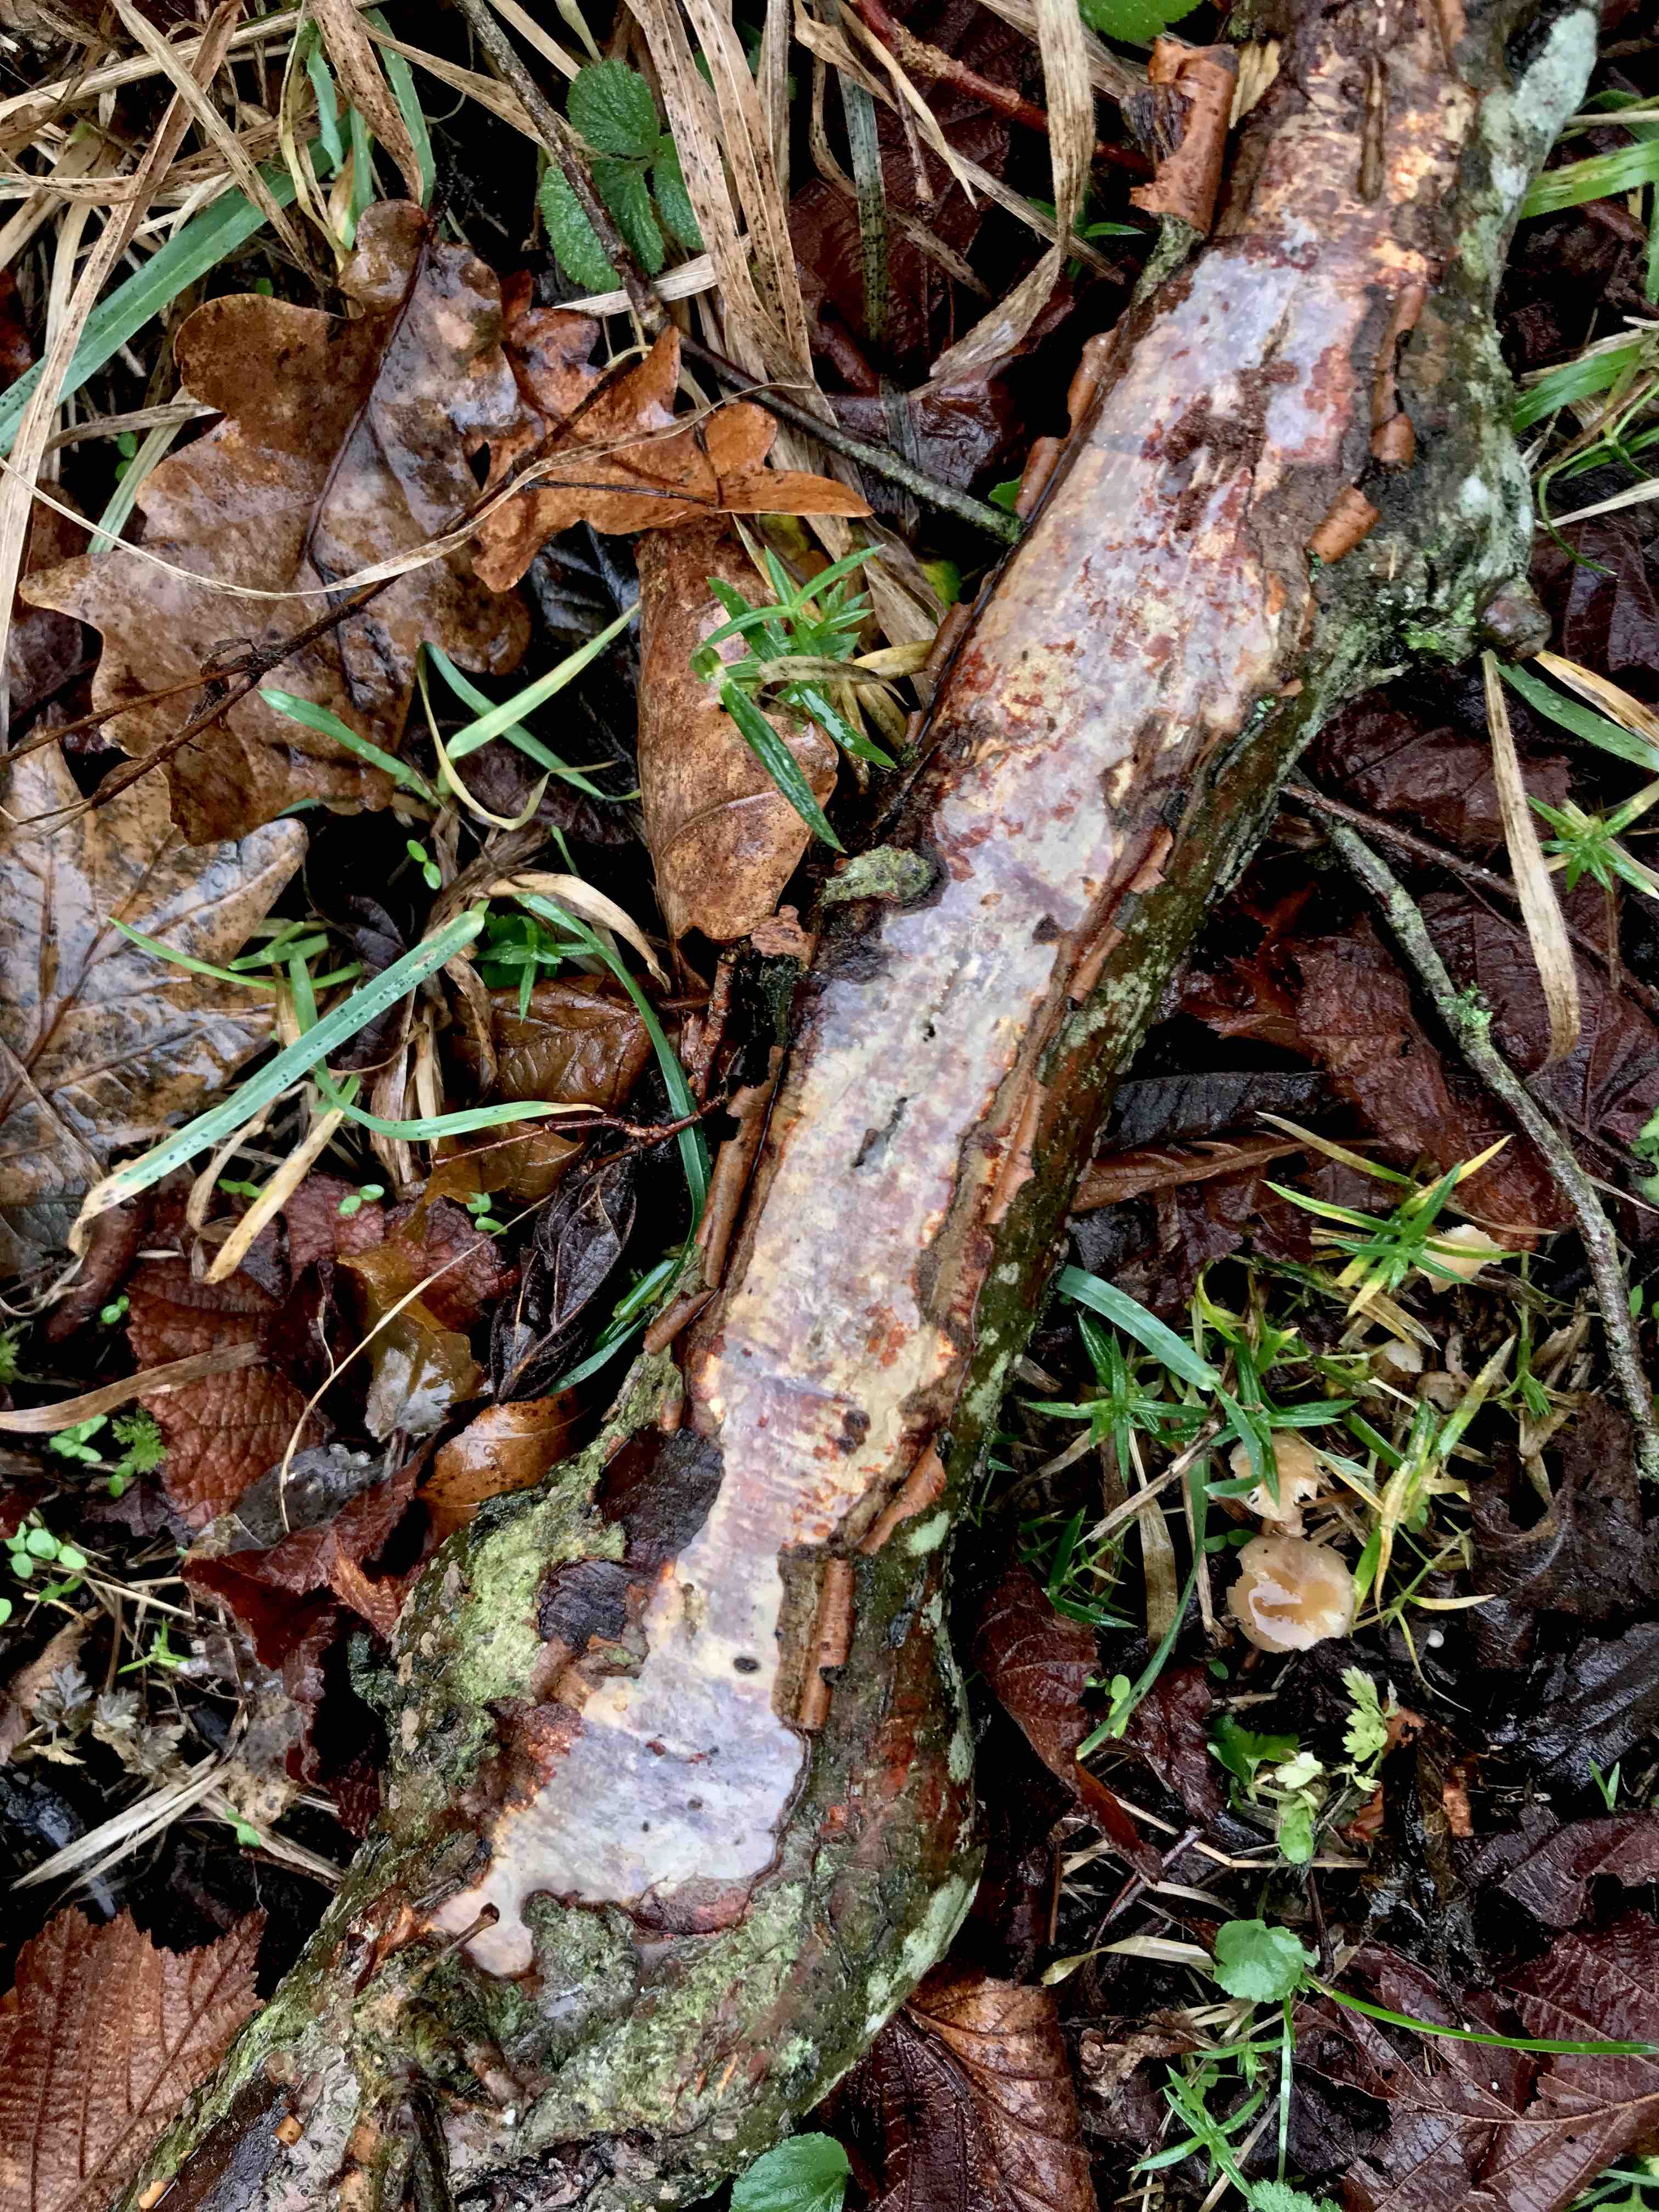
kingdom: Fungi
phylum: Basidiomycota
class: Agaricomycetes
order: Corticiales
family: Vuilleminiaceae
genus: Vuilleminia
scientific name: Vuilleminia comedens
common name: almindelig barksprænger
